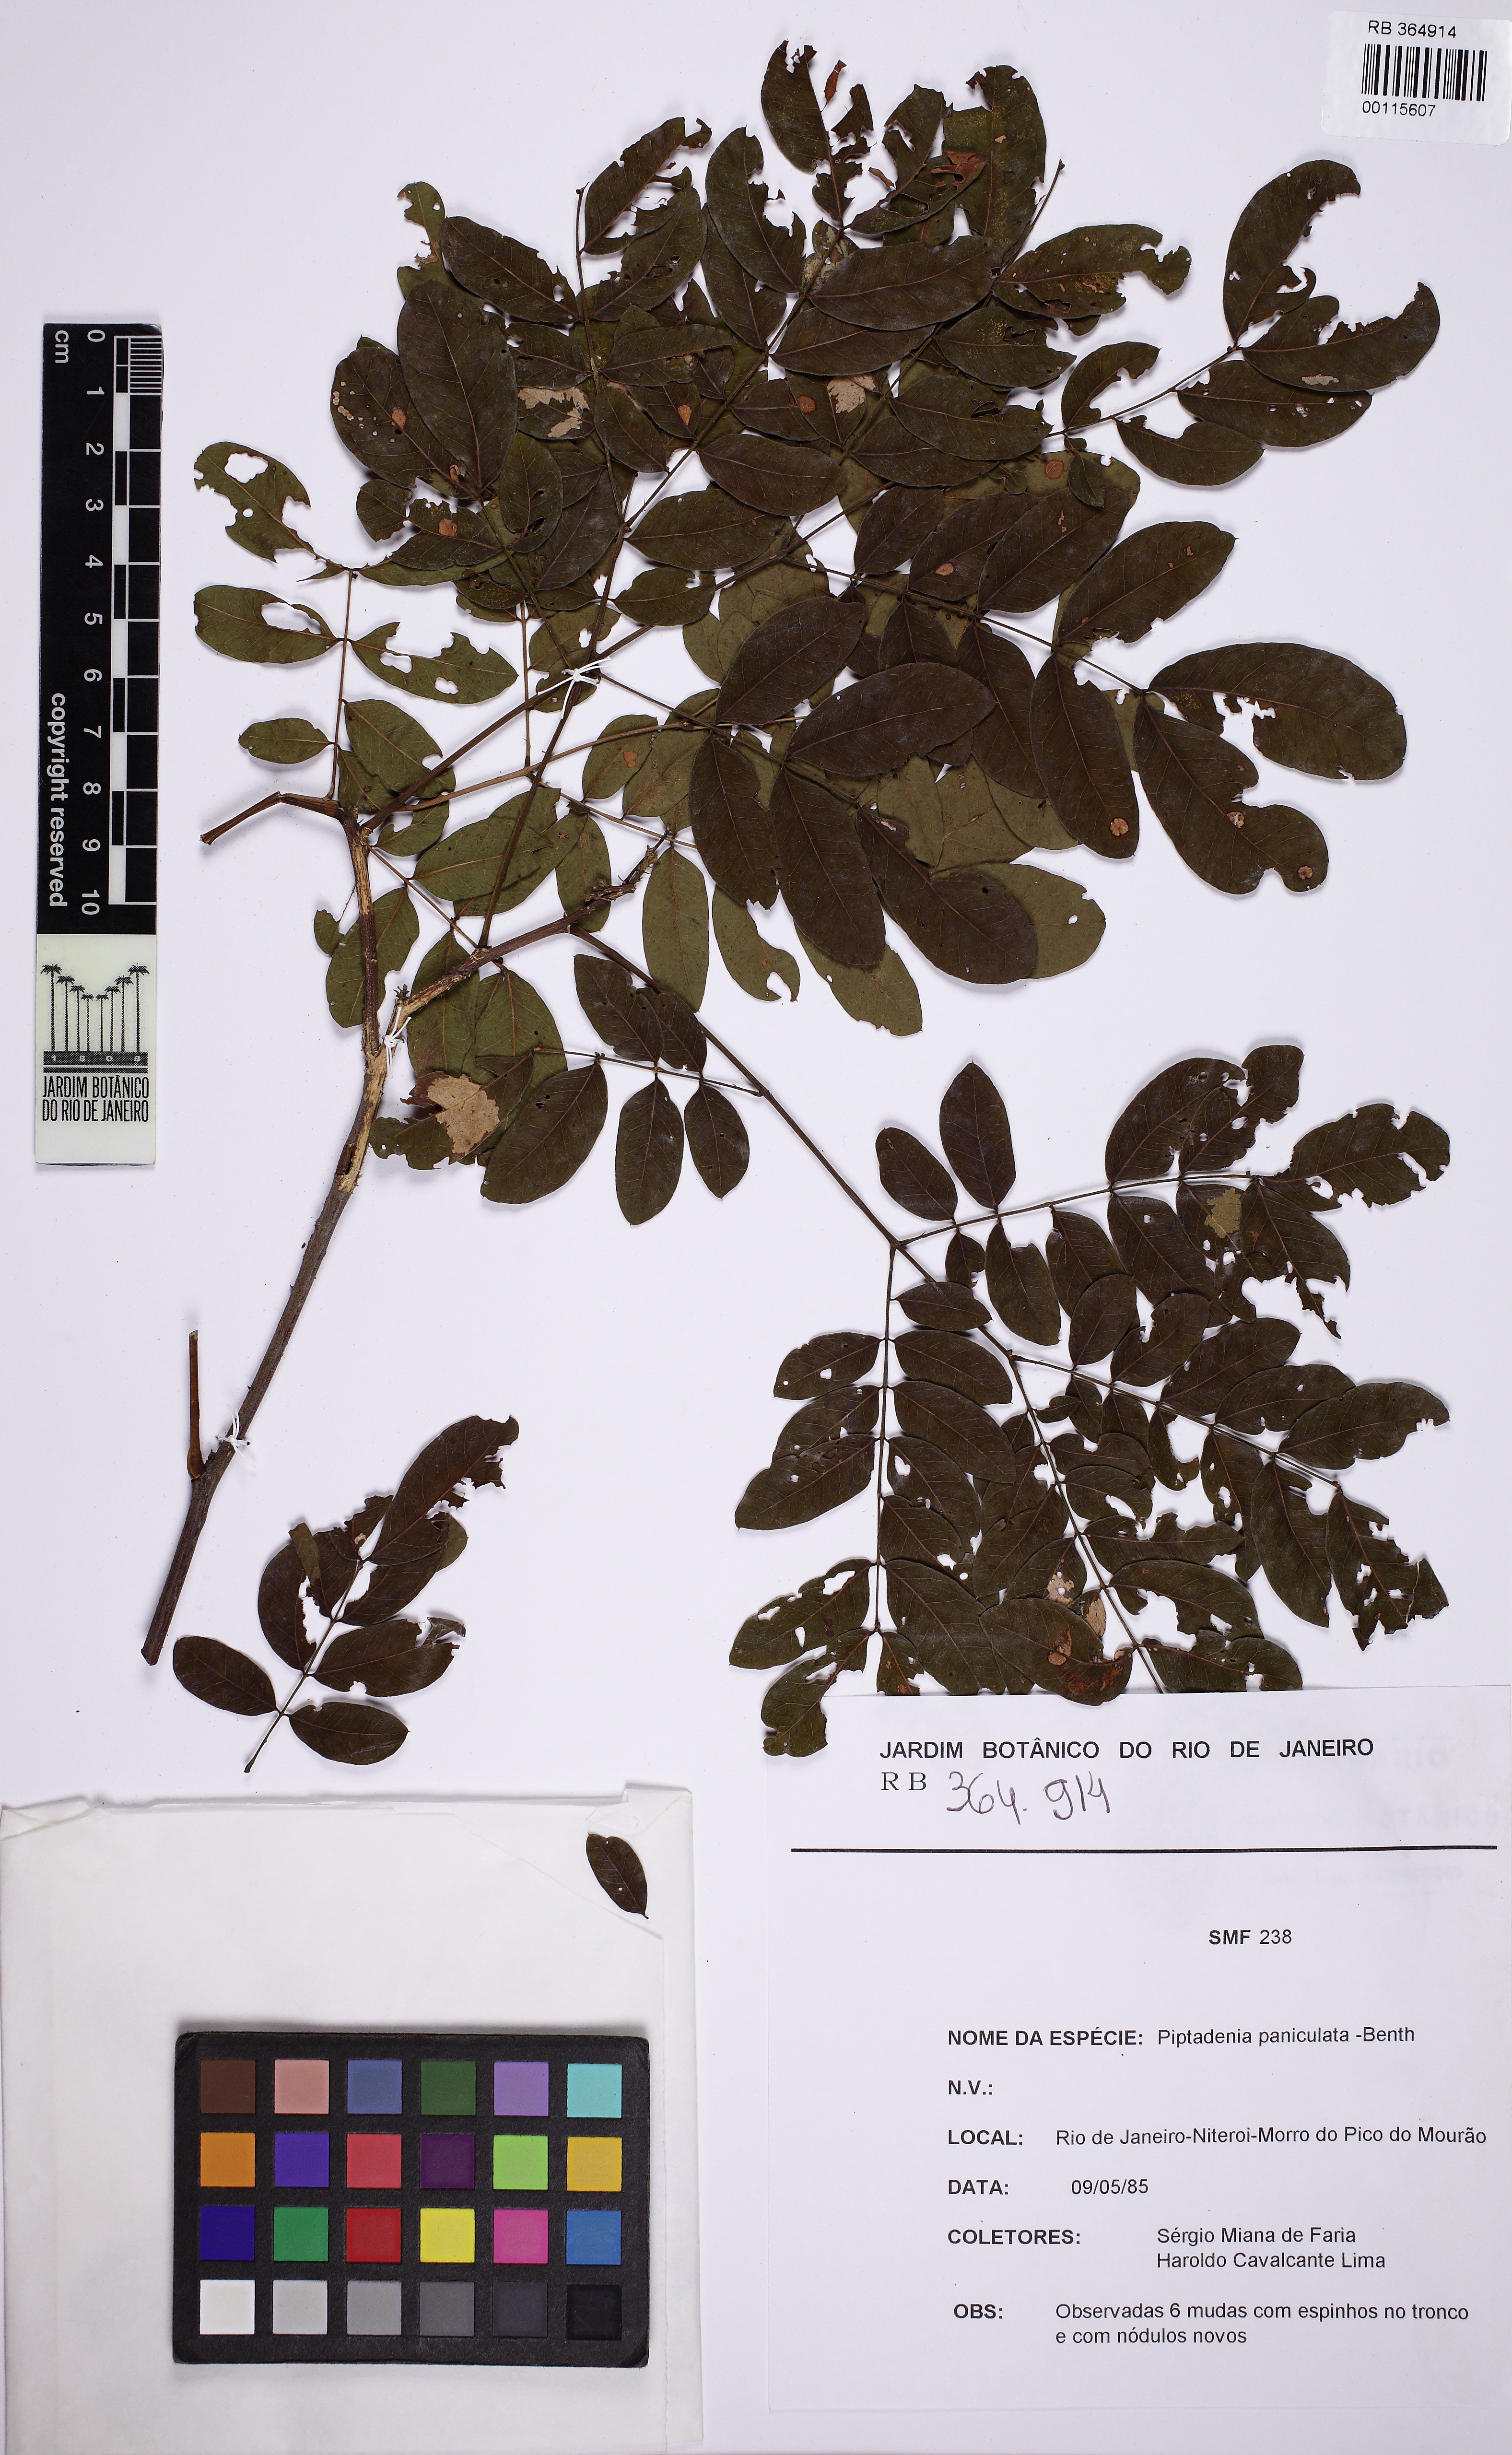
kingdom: Plantae
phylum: Tracheophyta
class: Magnoliopsida
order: Fabales
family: Fabaceae
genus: Piptadenia
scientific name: Piptadenia paniculata
